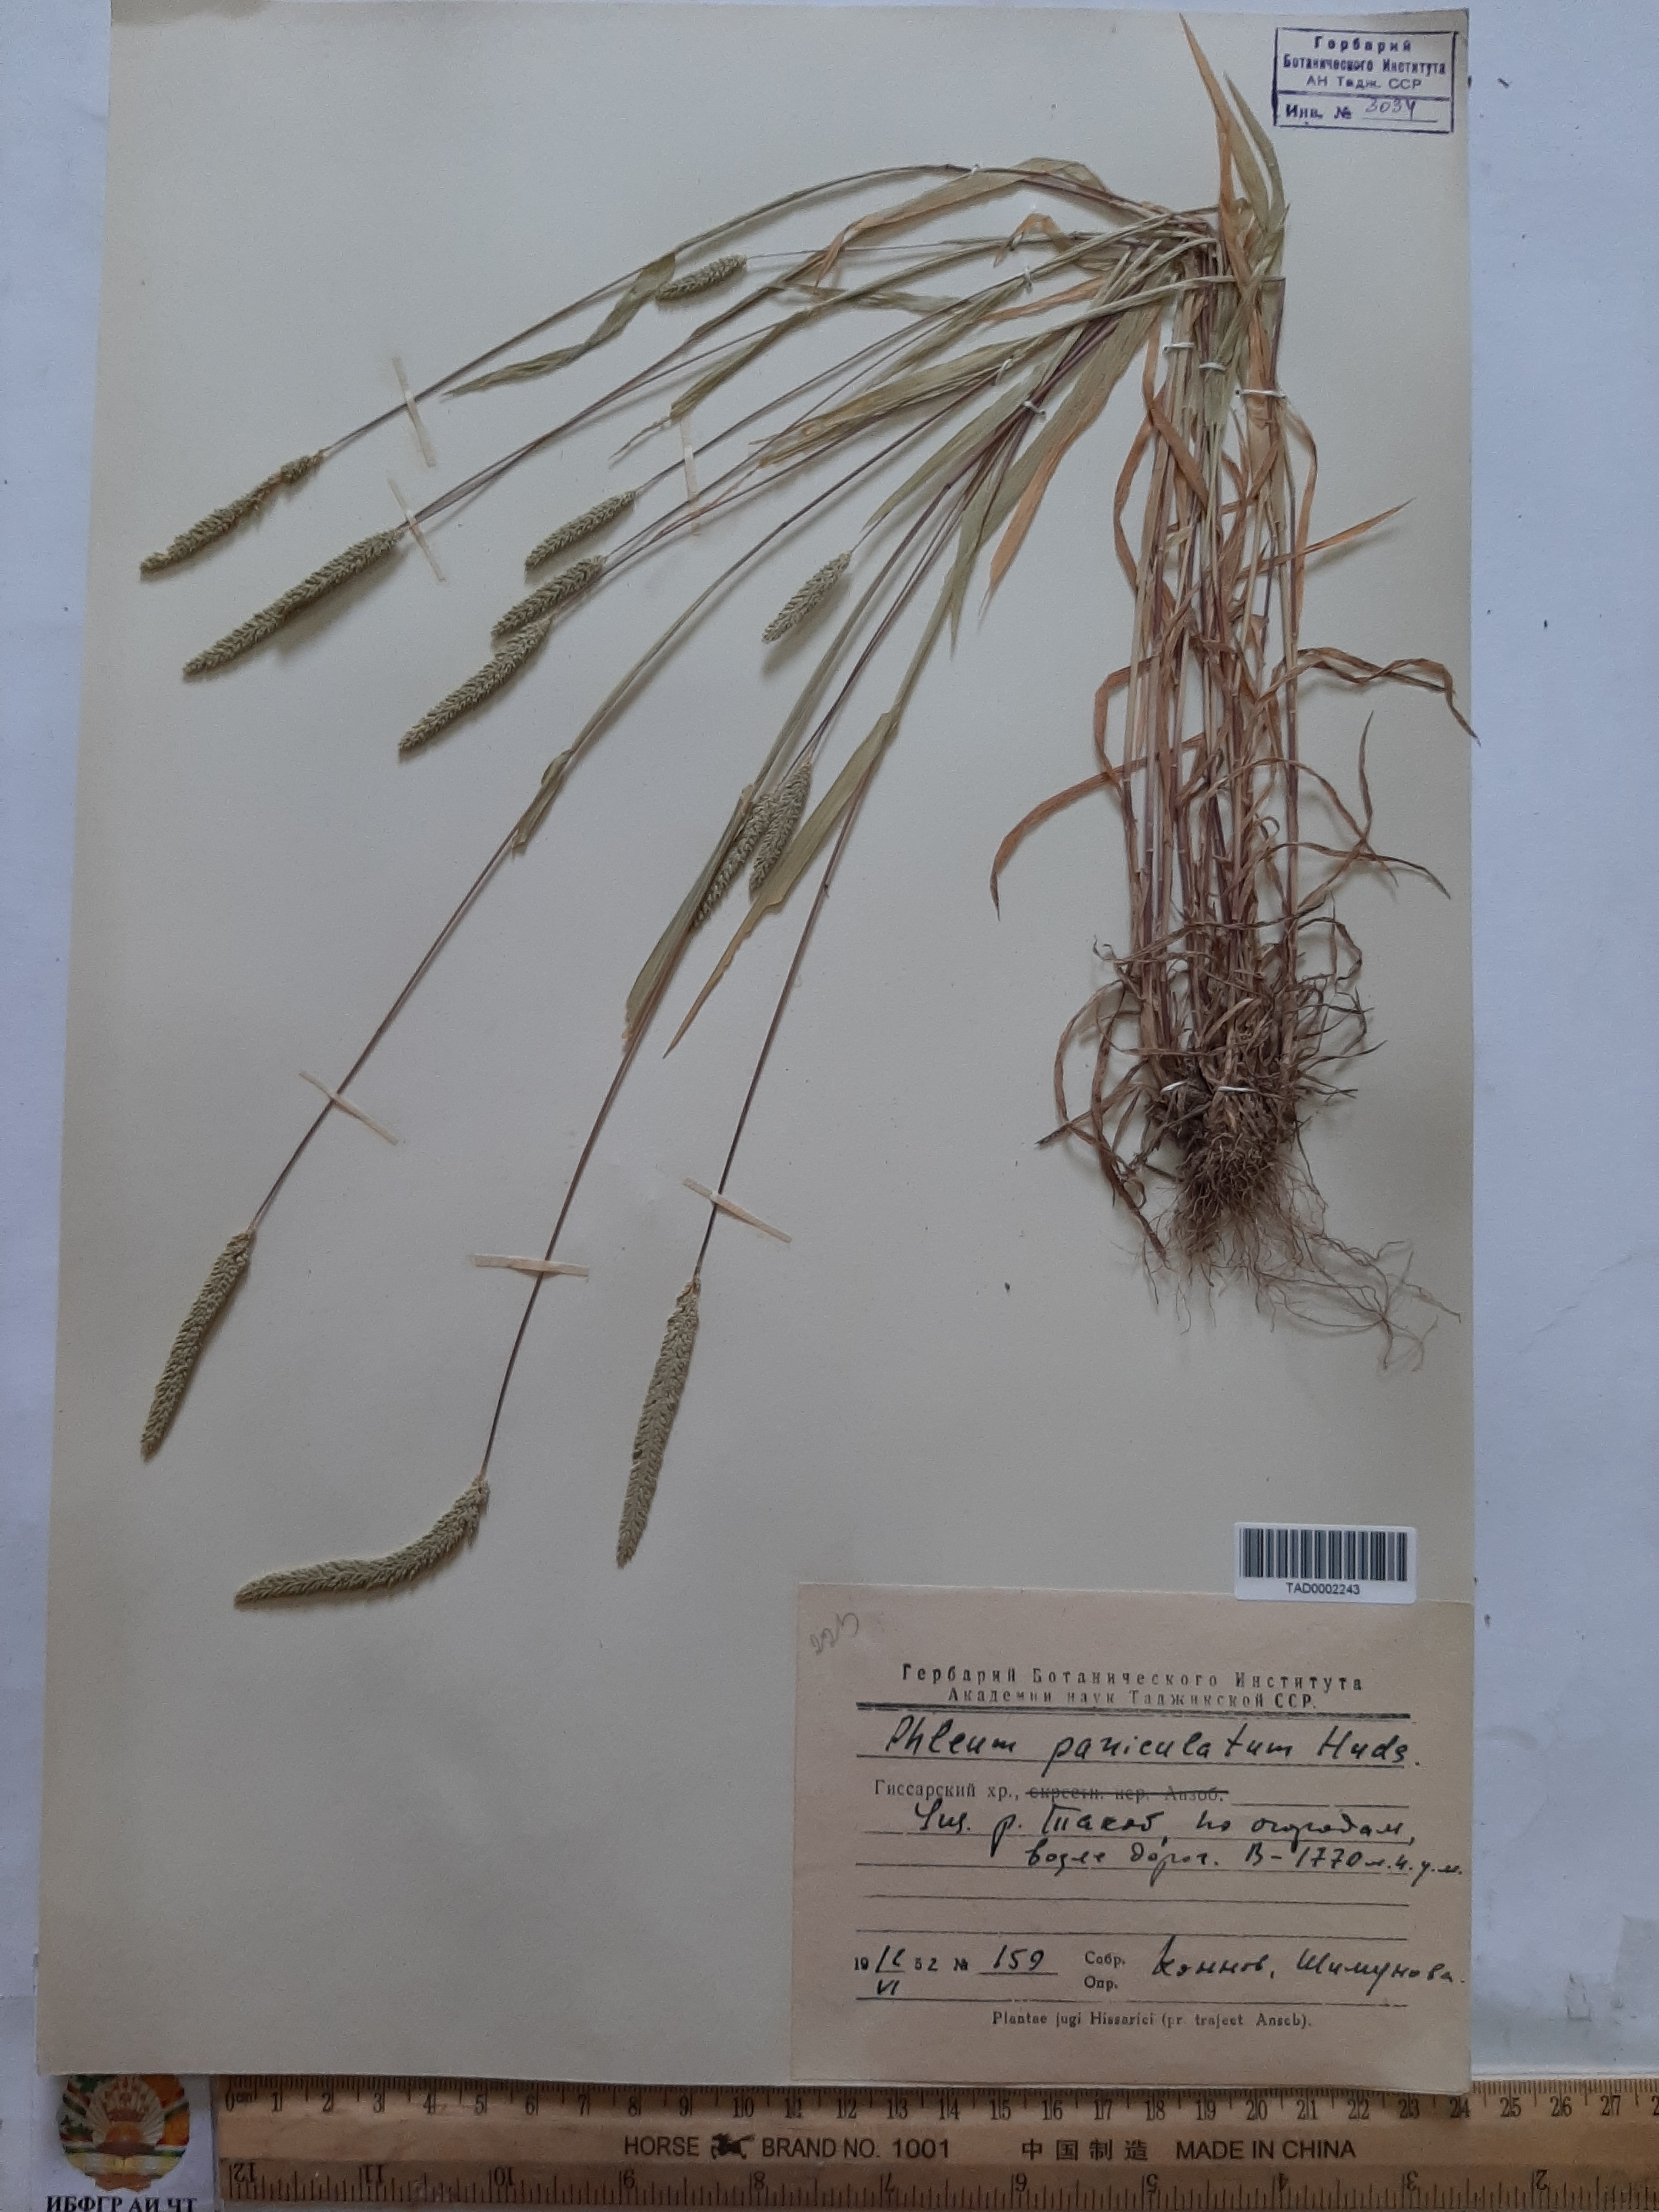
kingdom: Plantae
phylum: Tracheophyta
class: Liliopsida
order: Poales
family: Poaceae
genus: Phleum
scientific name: Phleum paniculatum
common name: British timothy
